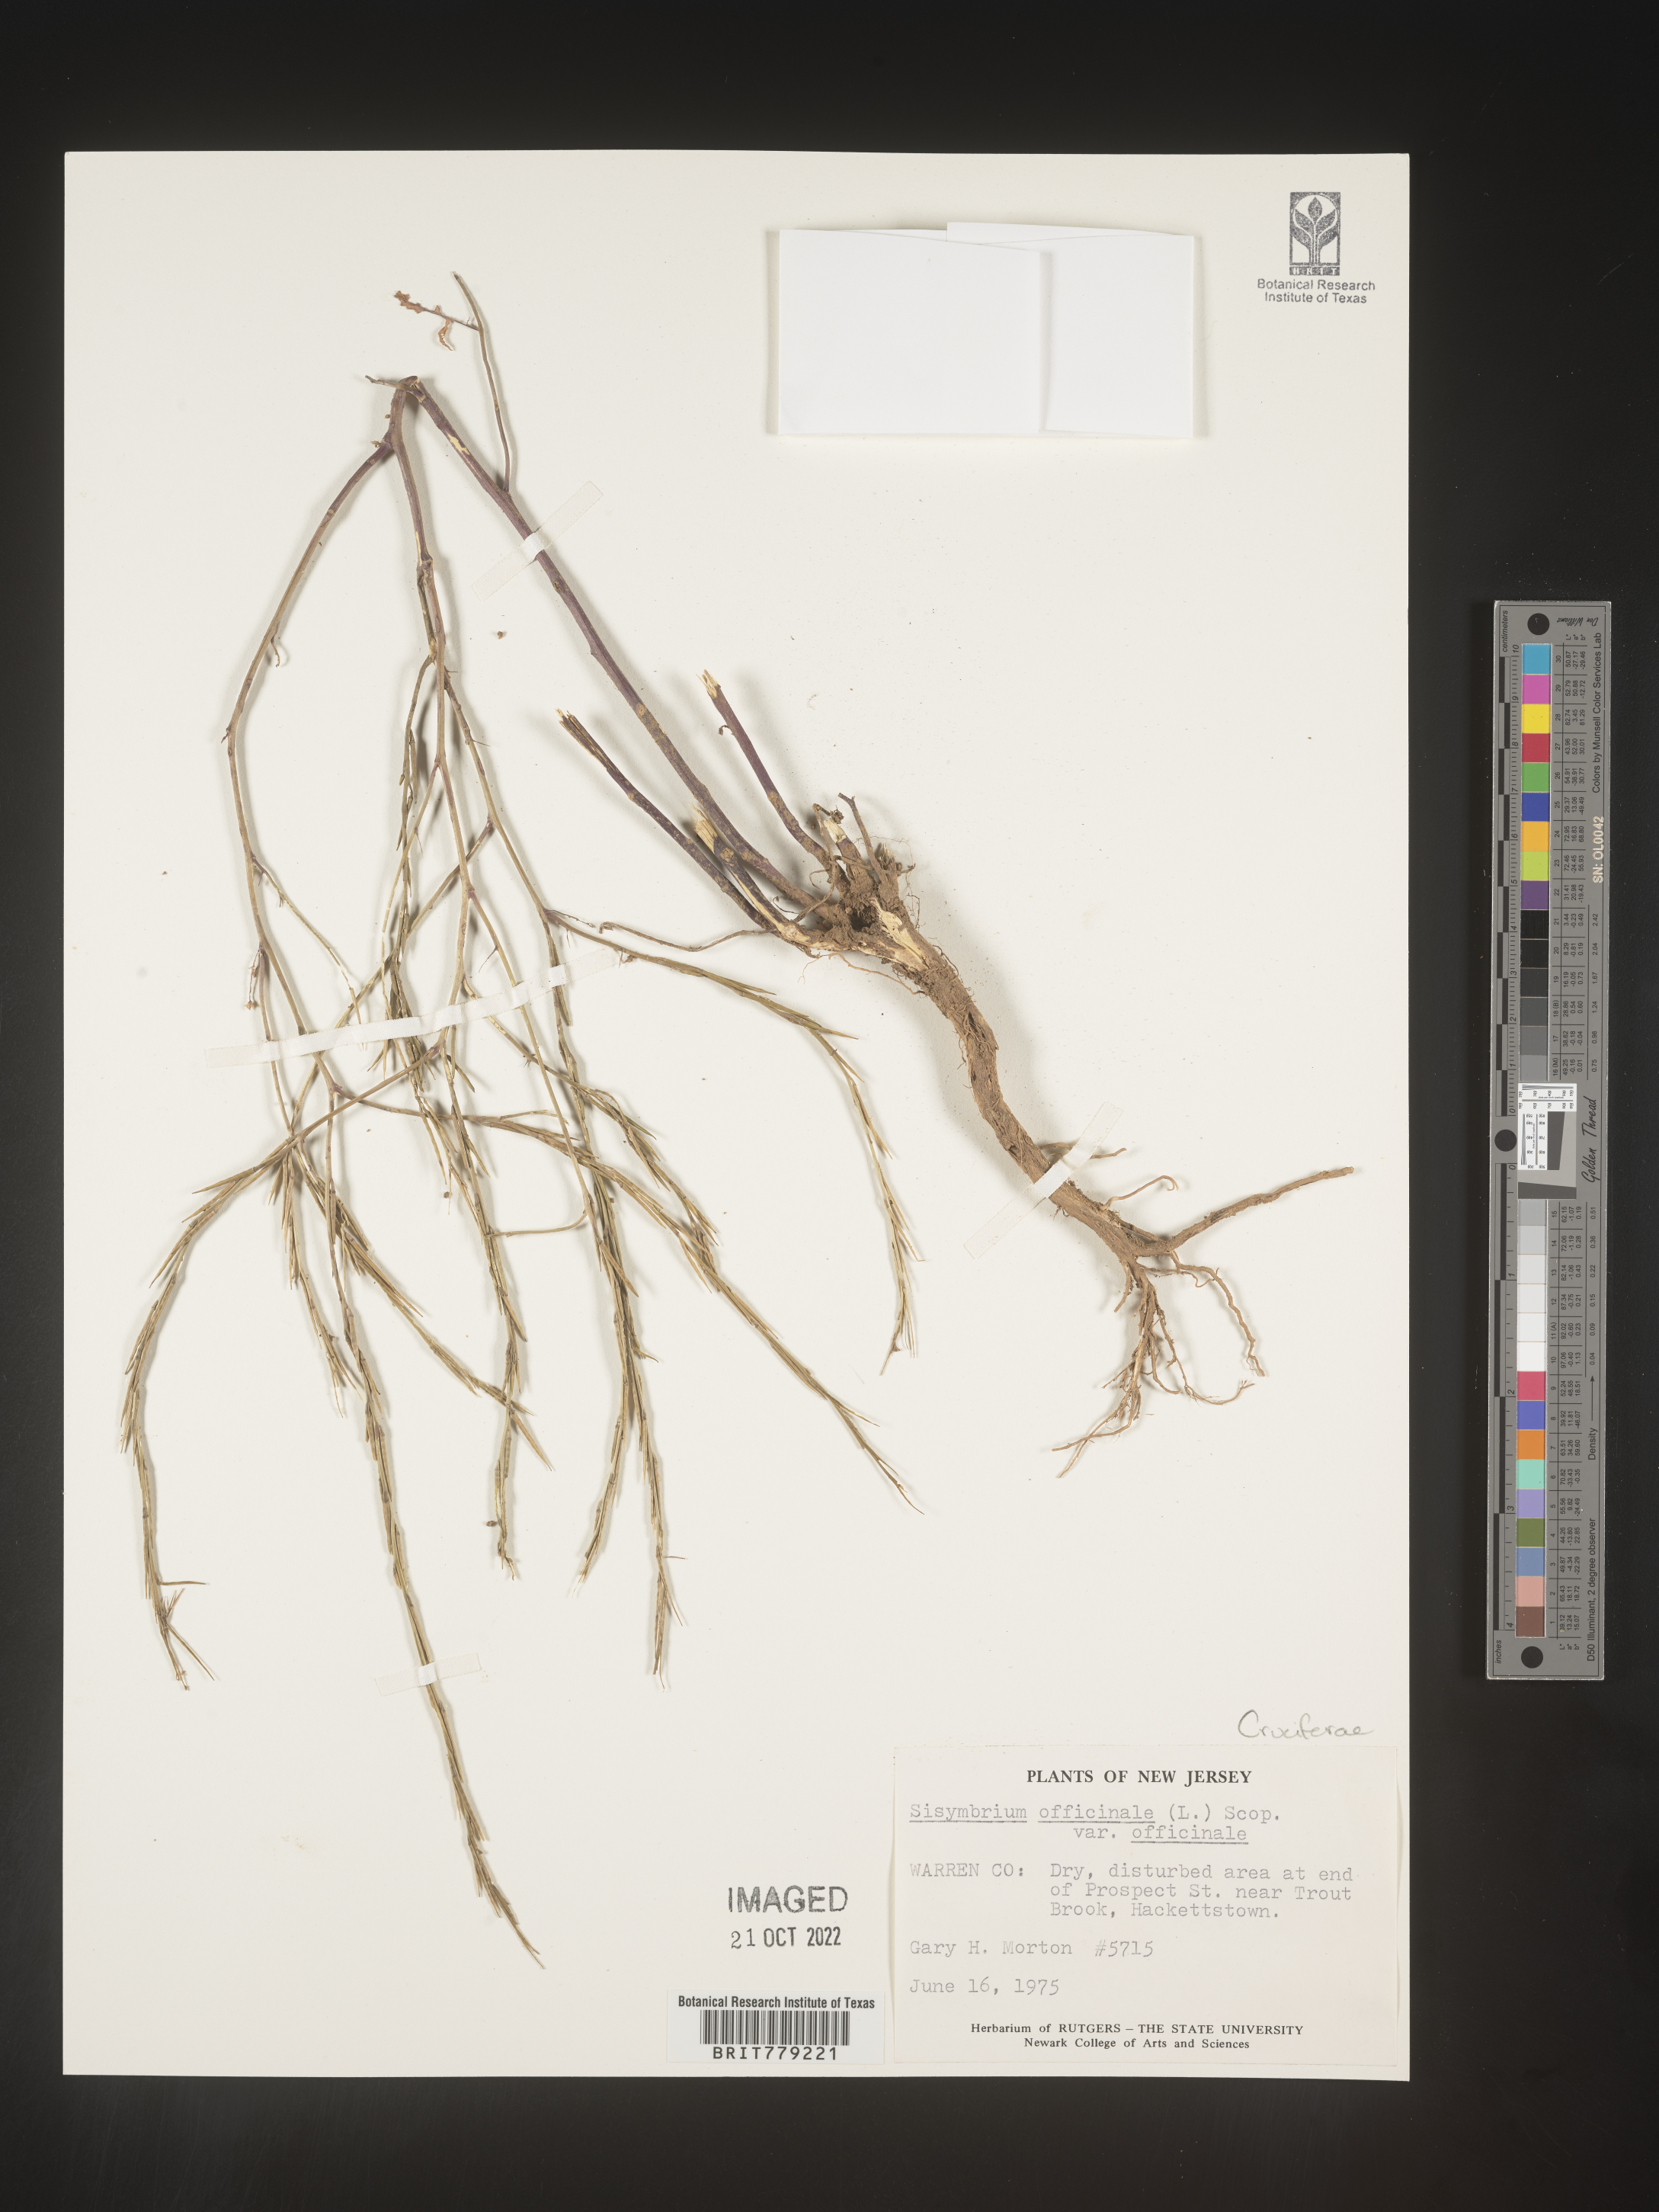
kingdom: Plantae
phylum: Tracheophyta
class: Magnoliopsida
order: Brassicales
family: Brassicaceae
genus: Sisymbrium
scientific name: Sisymbrium officinale
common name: Hedge mustard
